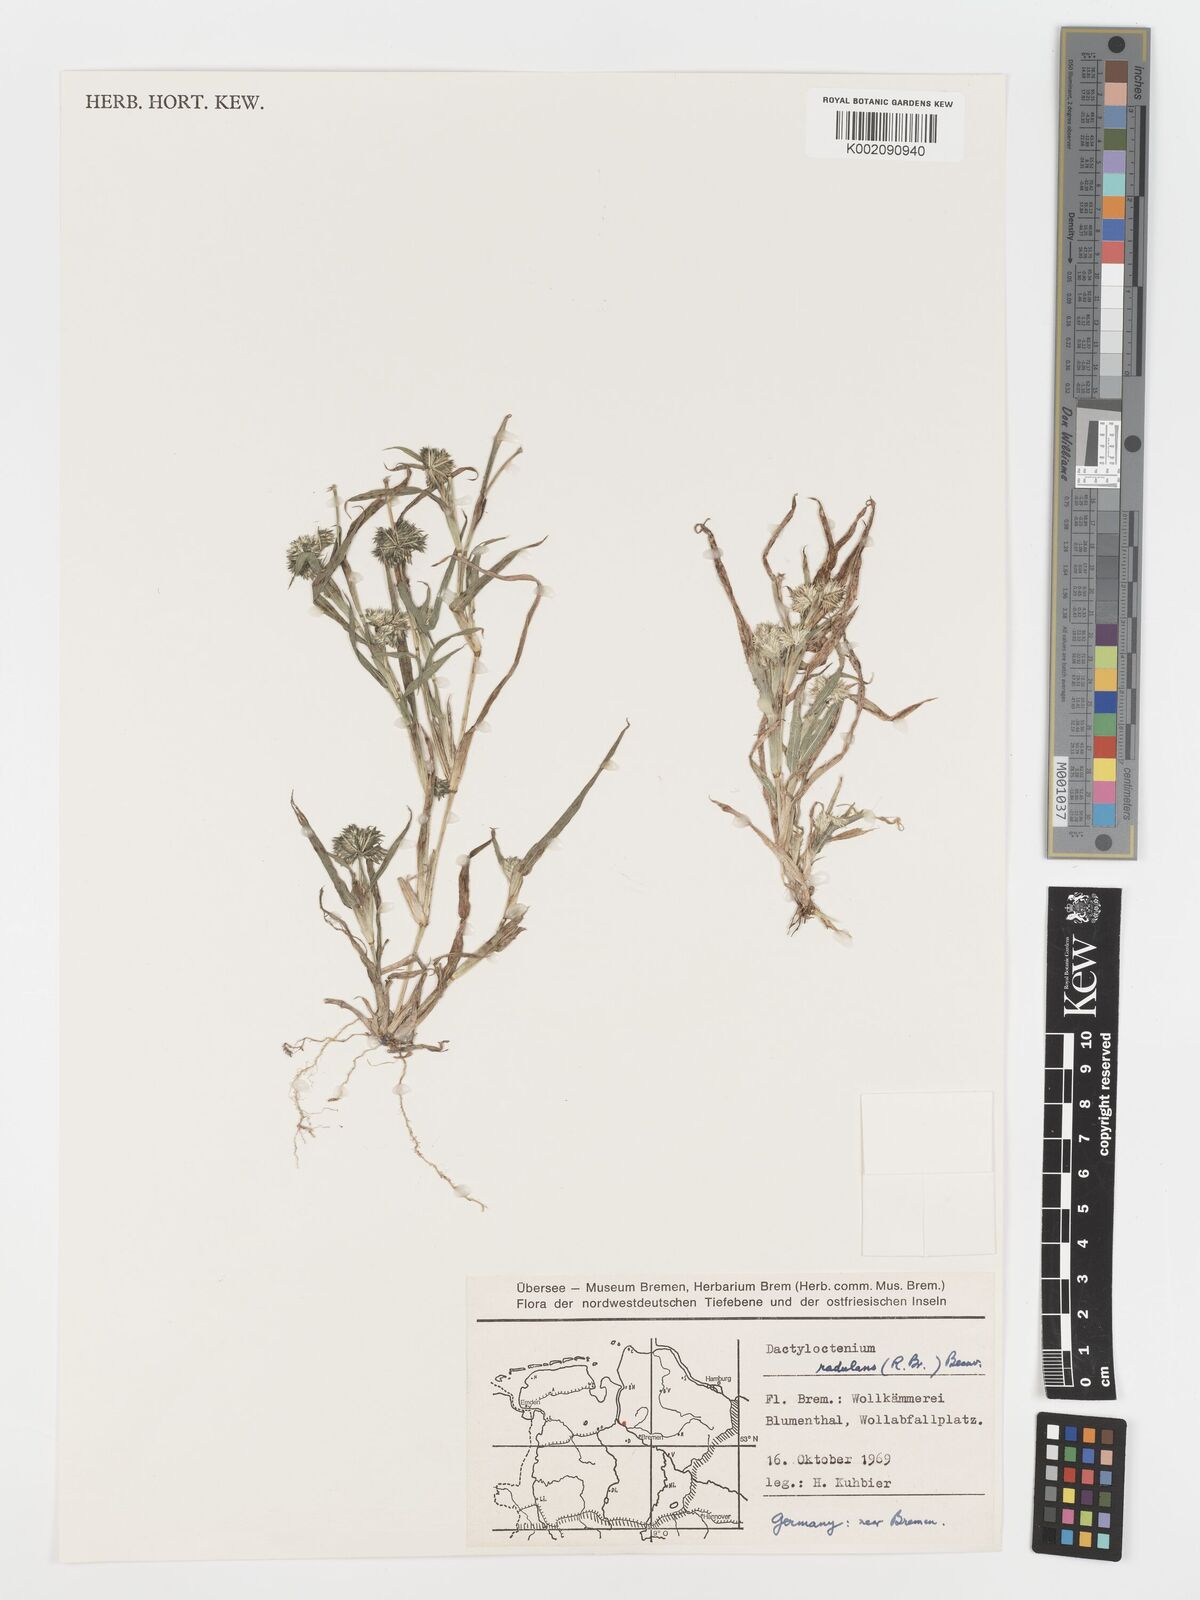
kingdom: Plantae
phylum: Tracheophyta
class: Liliopsida
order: Poales
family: Poaceae
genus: Dactyloctenium
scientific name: Dactyloctenium radulans
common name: Button-grass
